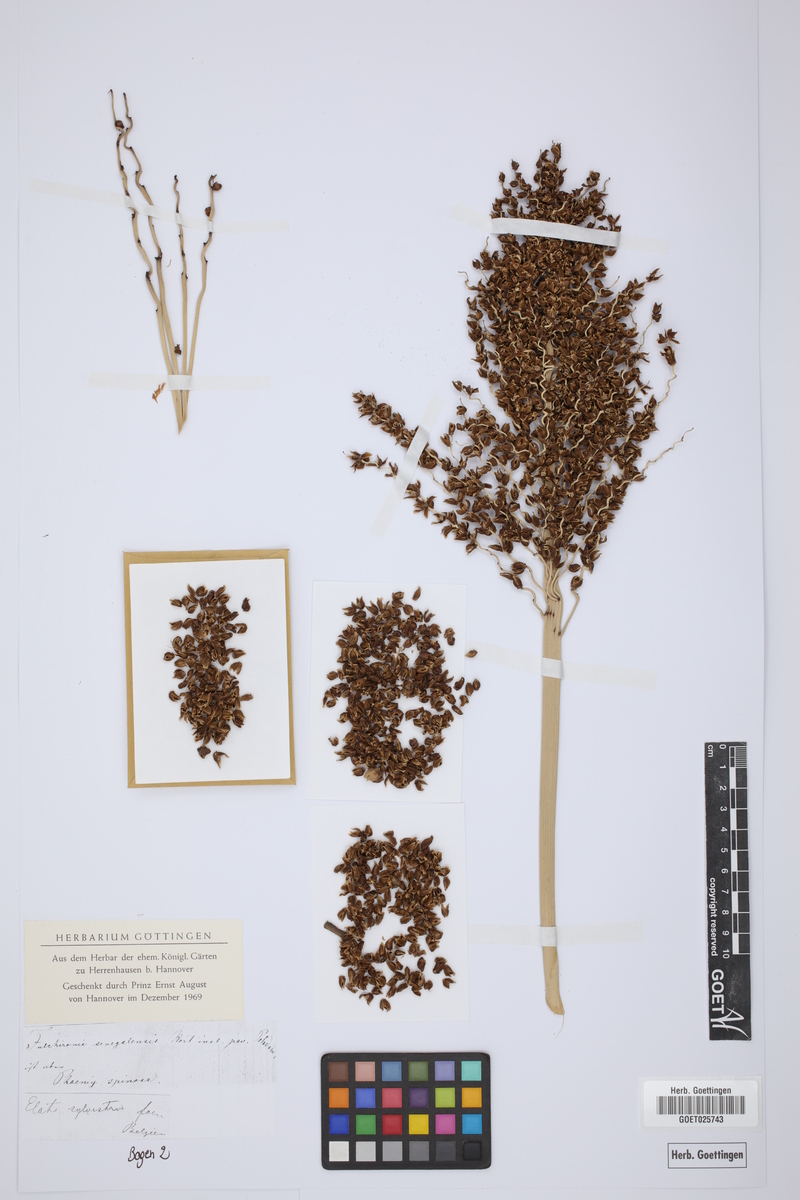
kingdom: Plantae
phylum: Tracheophyta
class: Liliopsida
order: Arecales
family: Arecaceae
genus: Phoenix
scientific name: Phoenix reclinata
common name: Senegal date palm
